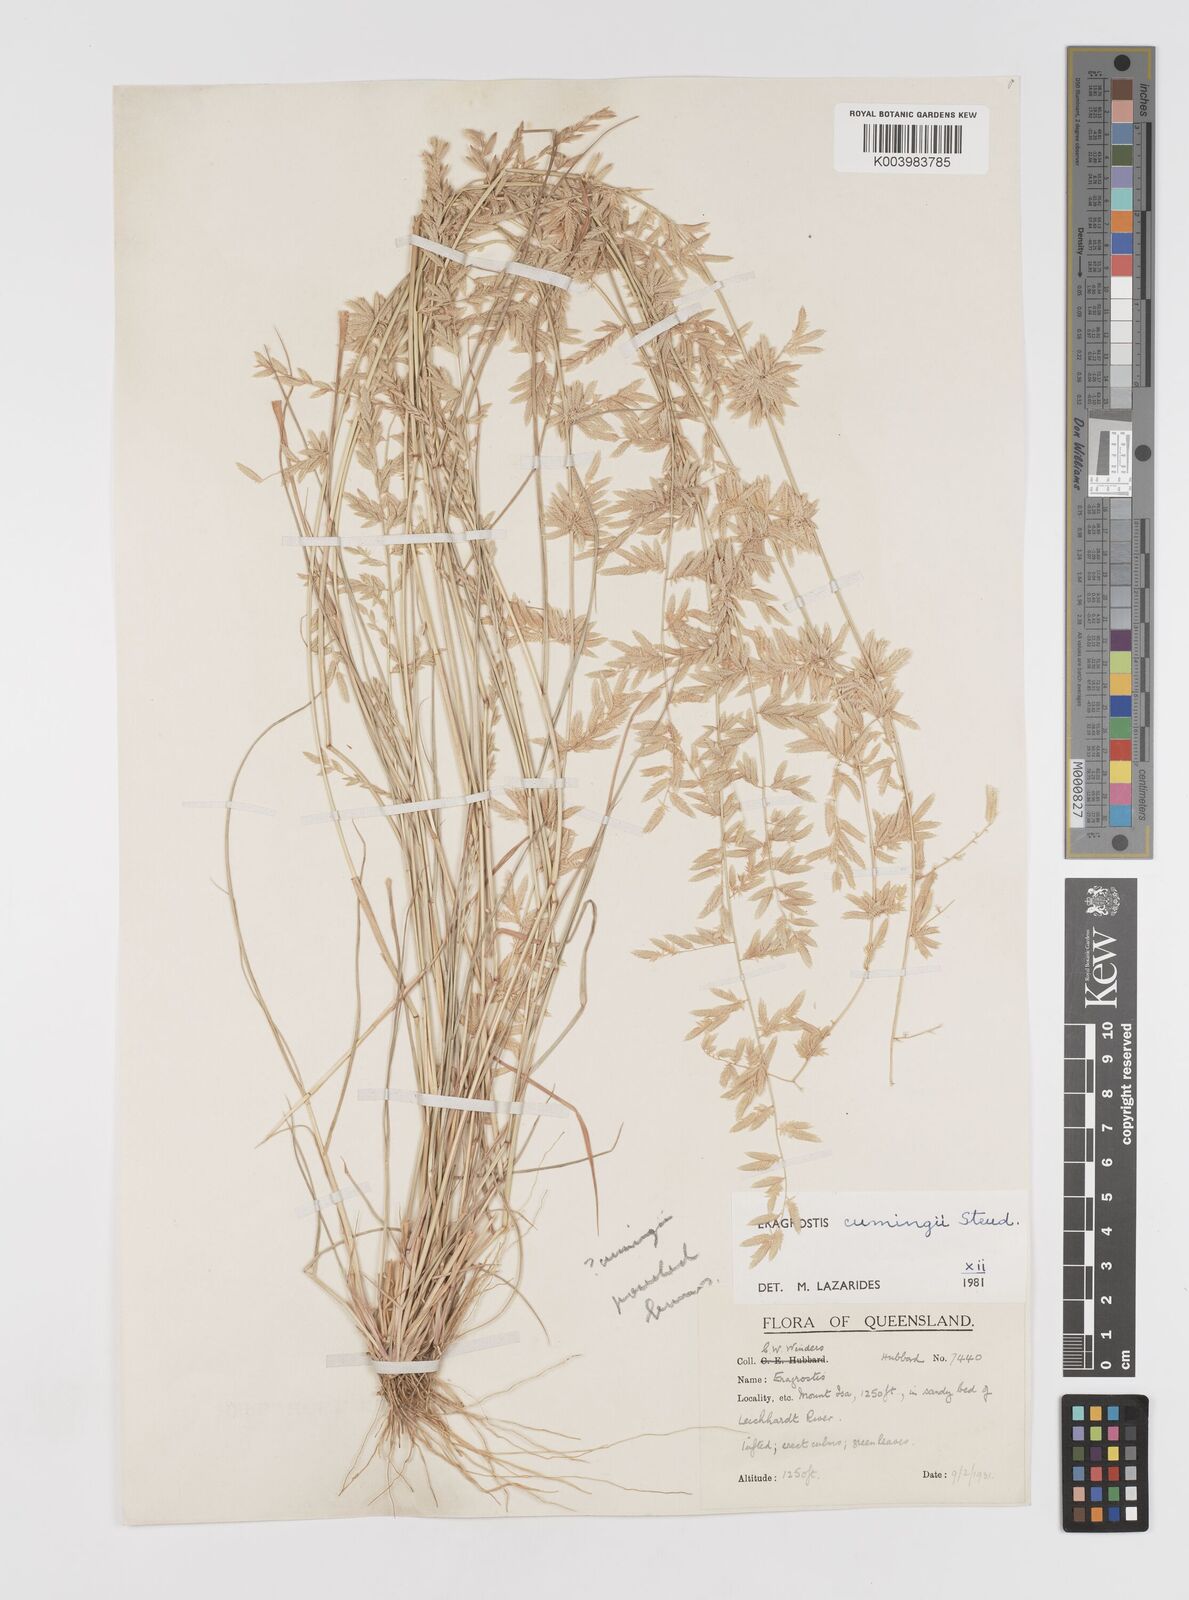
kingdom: Plantae
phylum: Tracheophyta
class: Liliopsida
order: Poales
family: Poaceae
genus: Eragrostis
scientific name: Eragrostis cumingii
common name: Cuming's lovegrass
